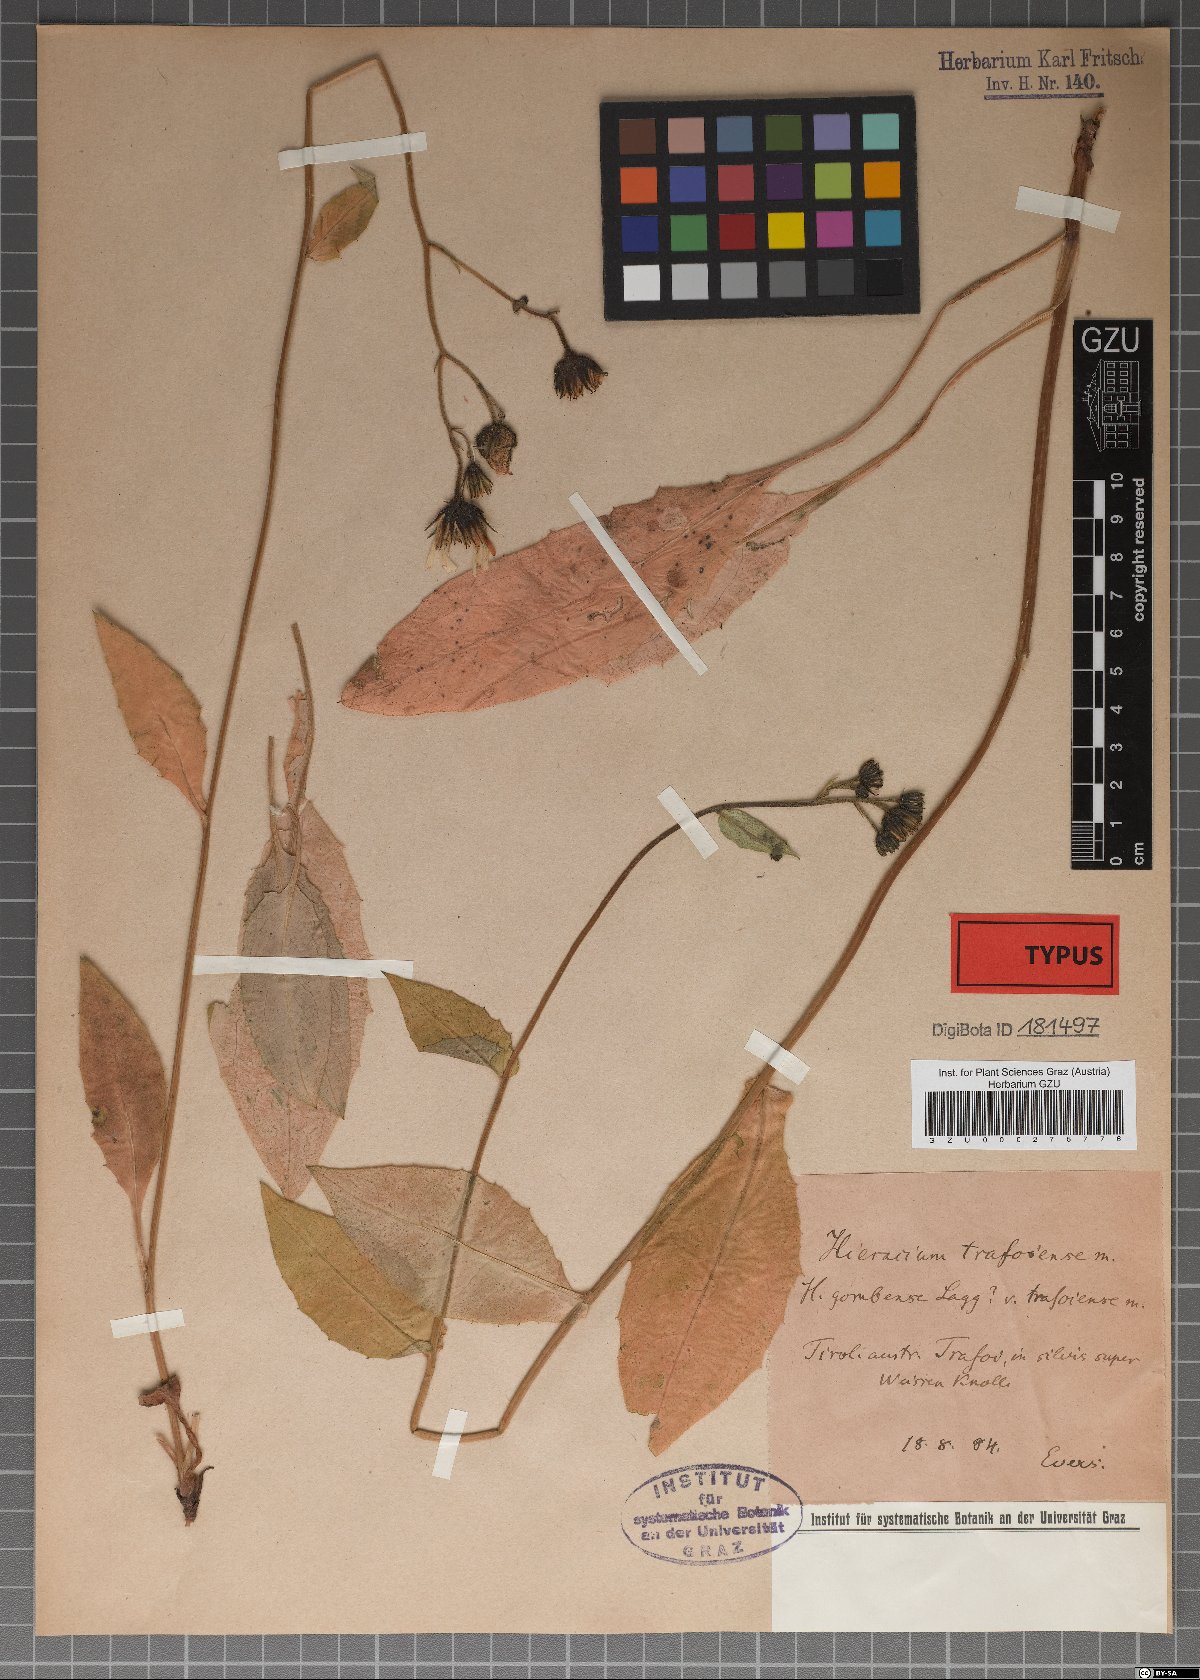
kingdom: Plantae
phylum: Tracheophyta
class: Magnoliopsida
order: Asterales
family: Asteraceae
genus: Hieracium
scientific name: Hieracium trafoiense
